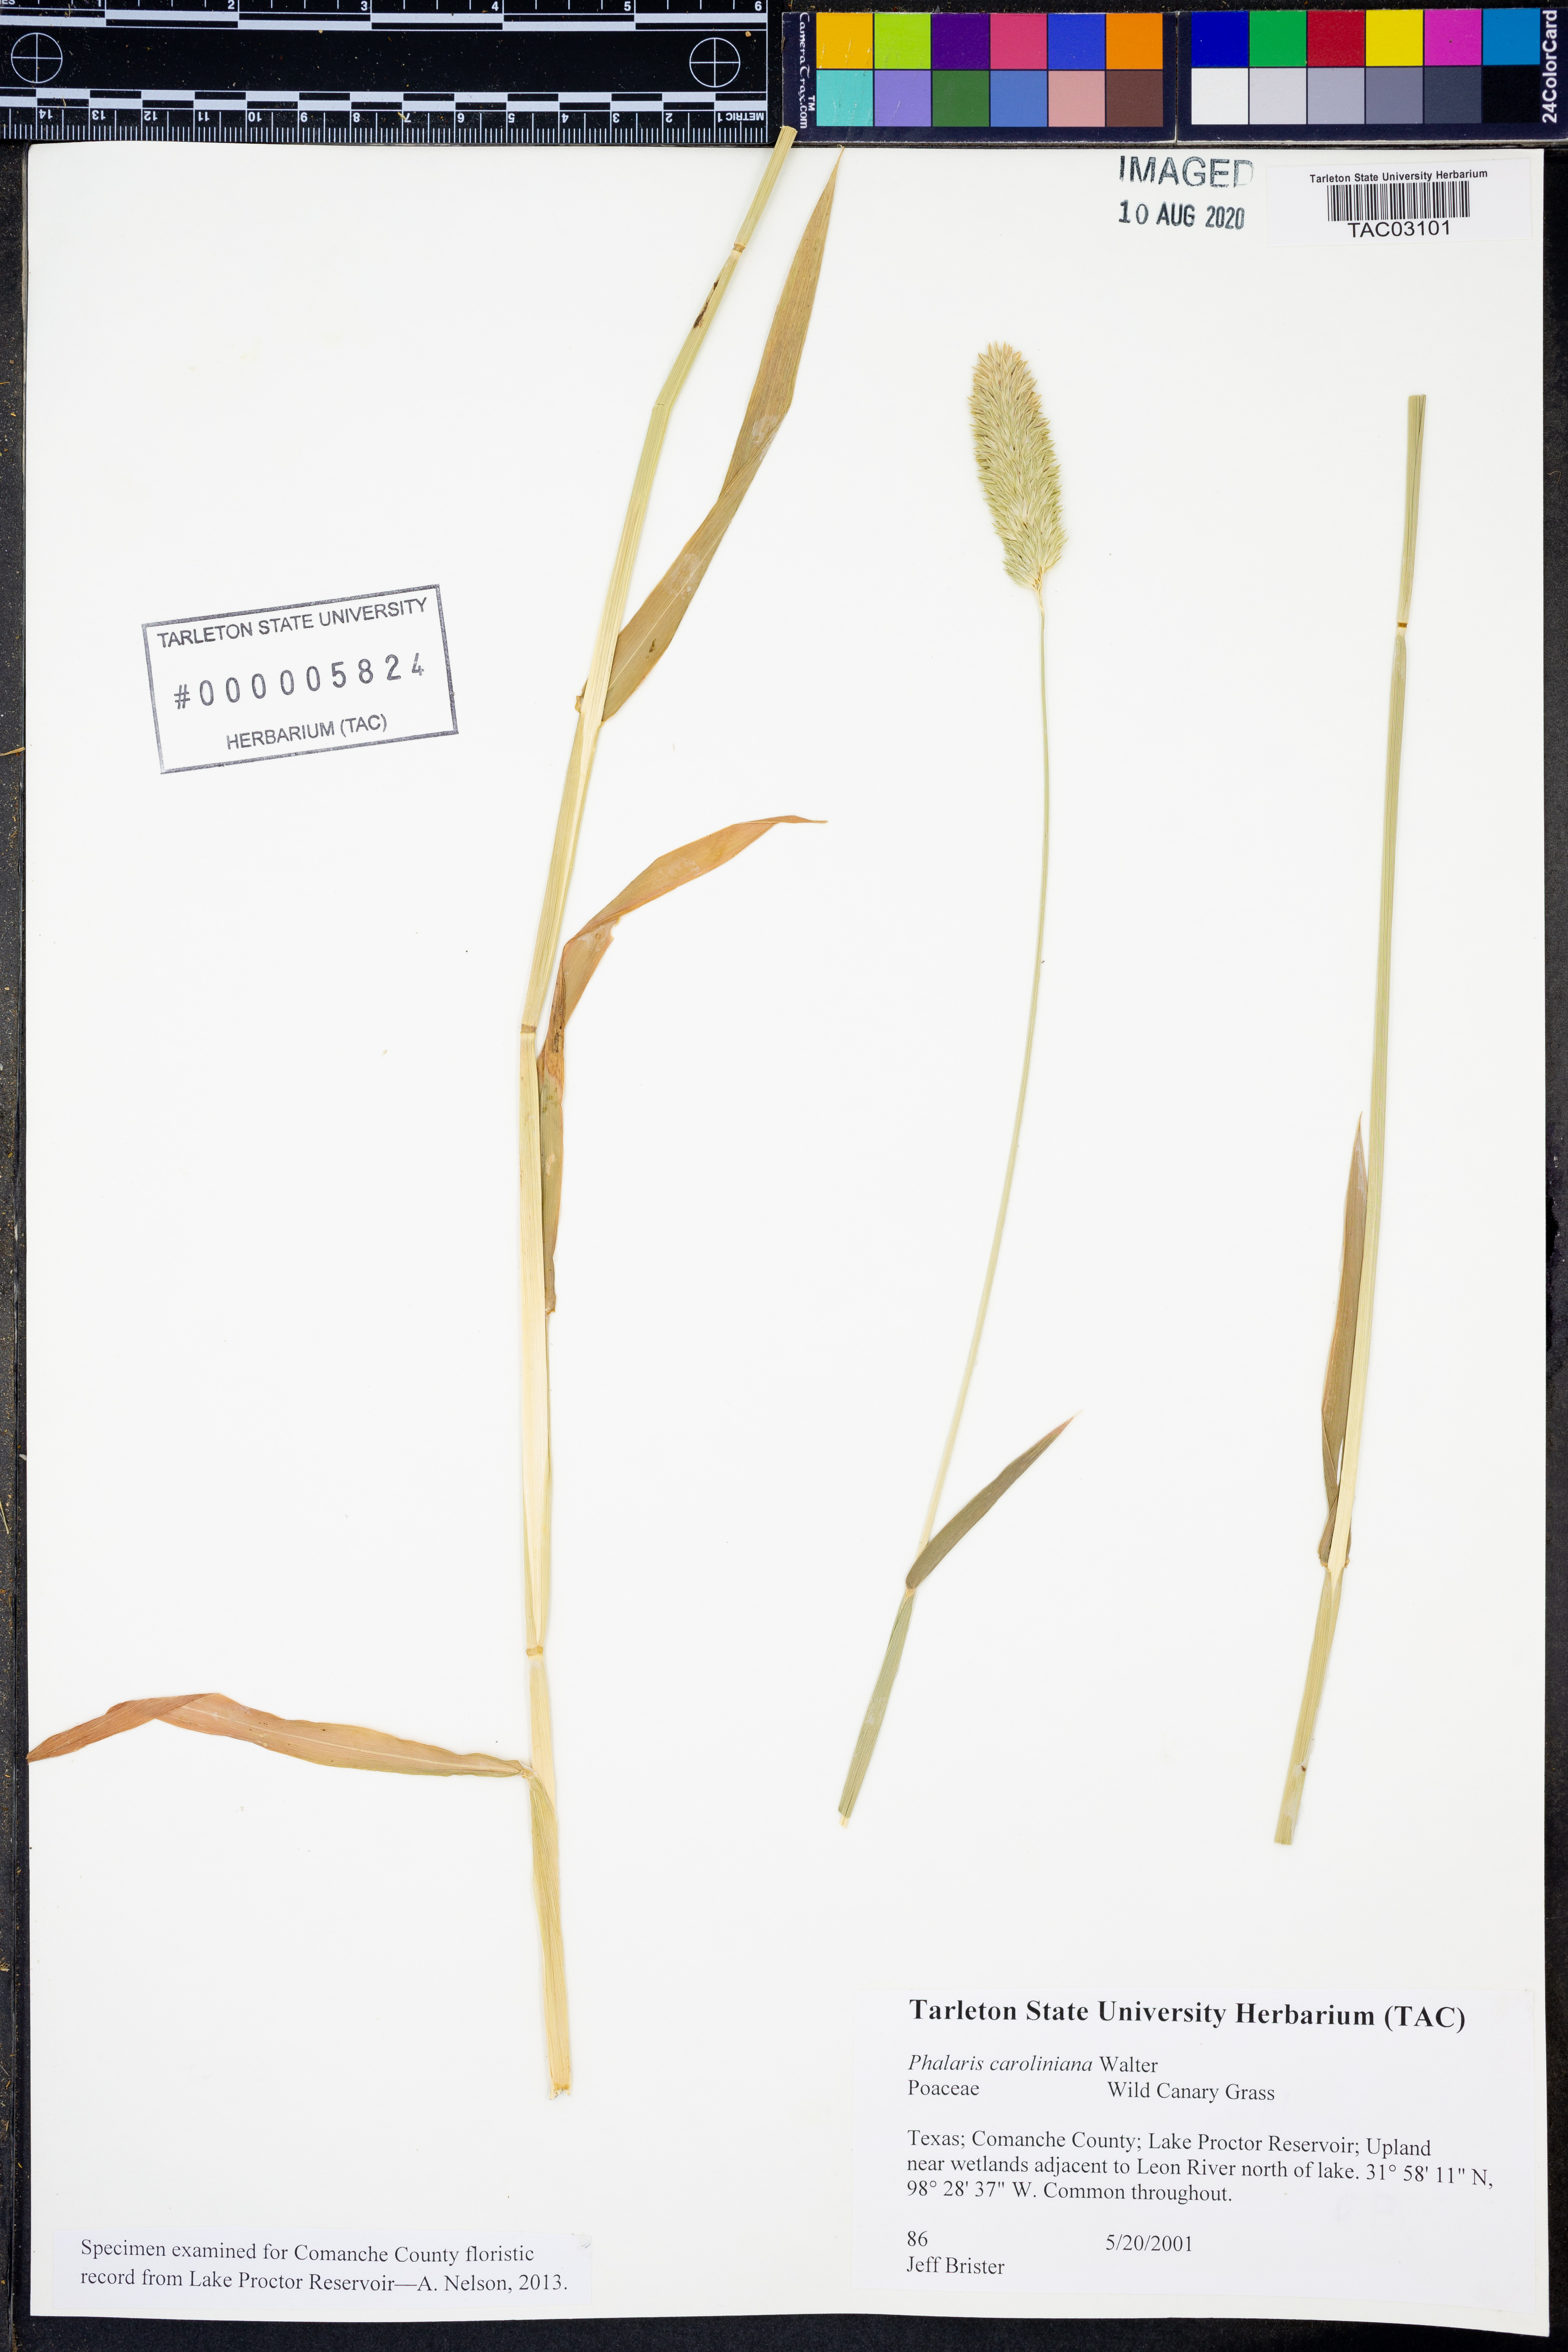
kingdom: Plantae
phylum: Tracheophyta
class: Liliopsida
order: Poales
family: Poaceae
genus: Phalaris
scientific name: Phalaris caroliniana
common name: May grass
